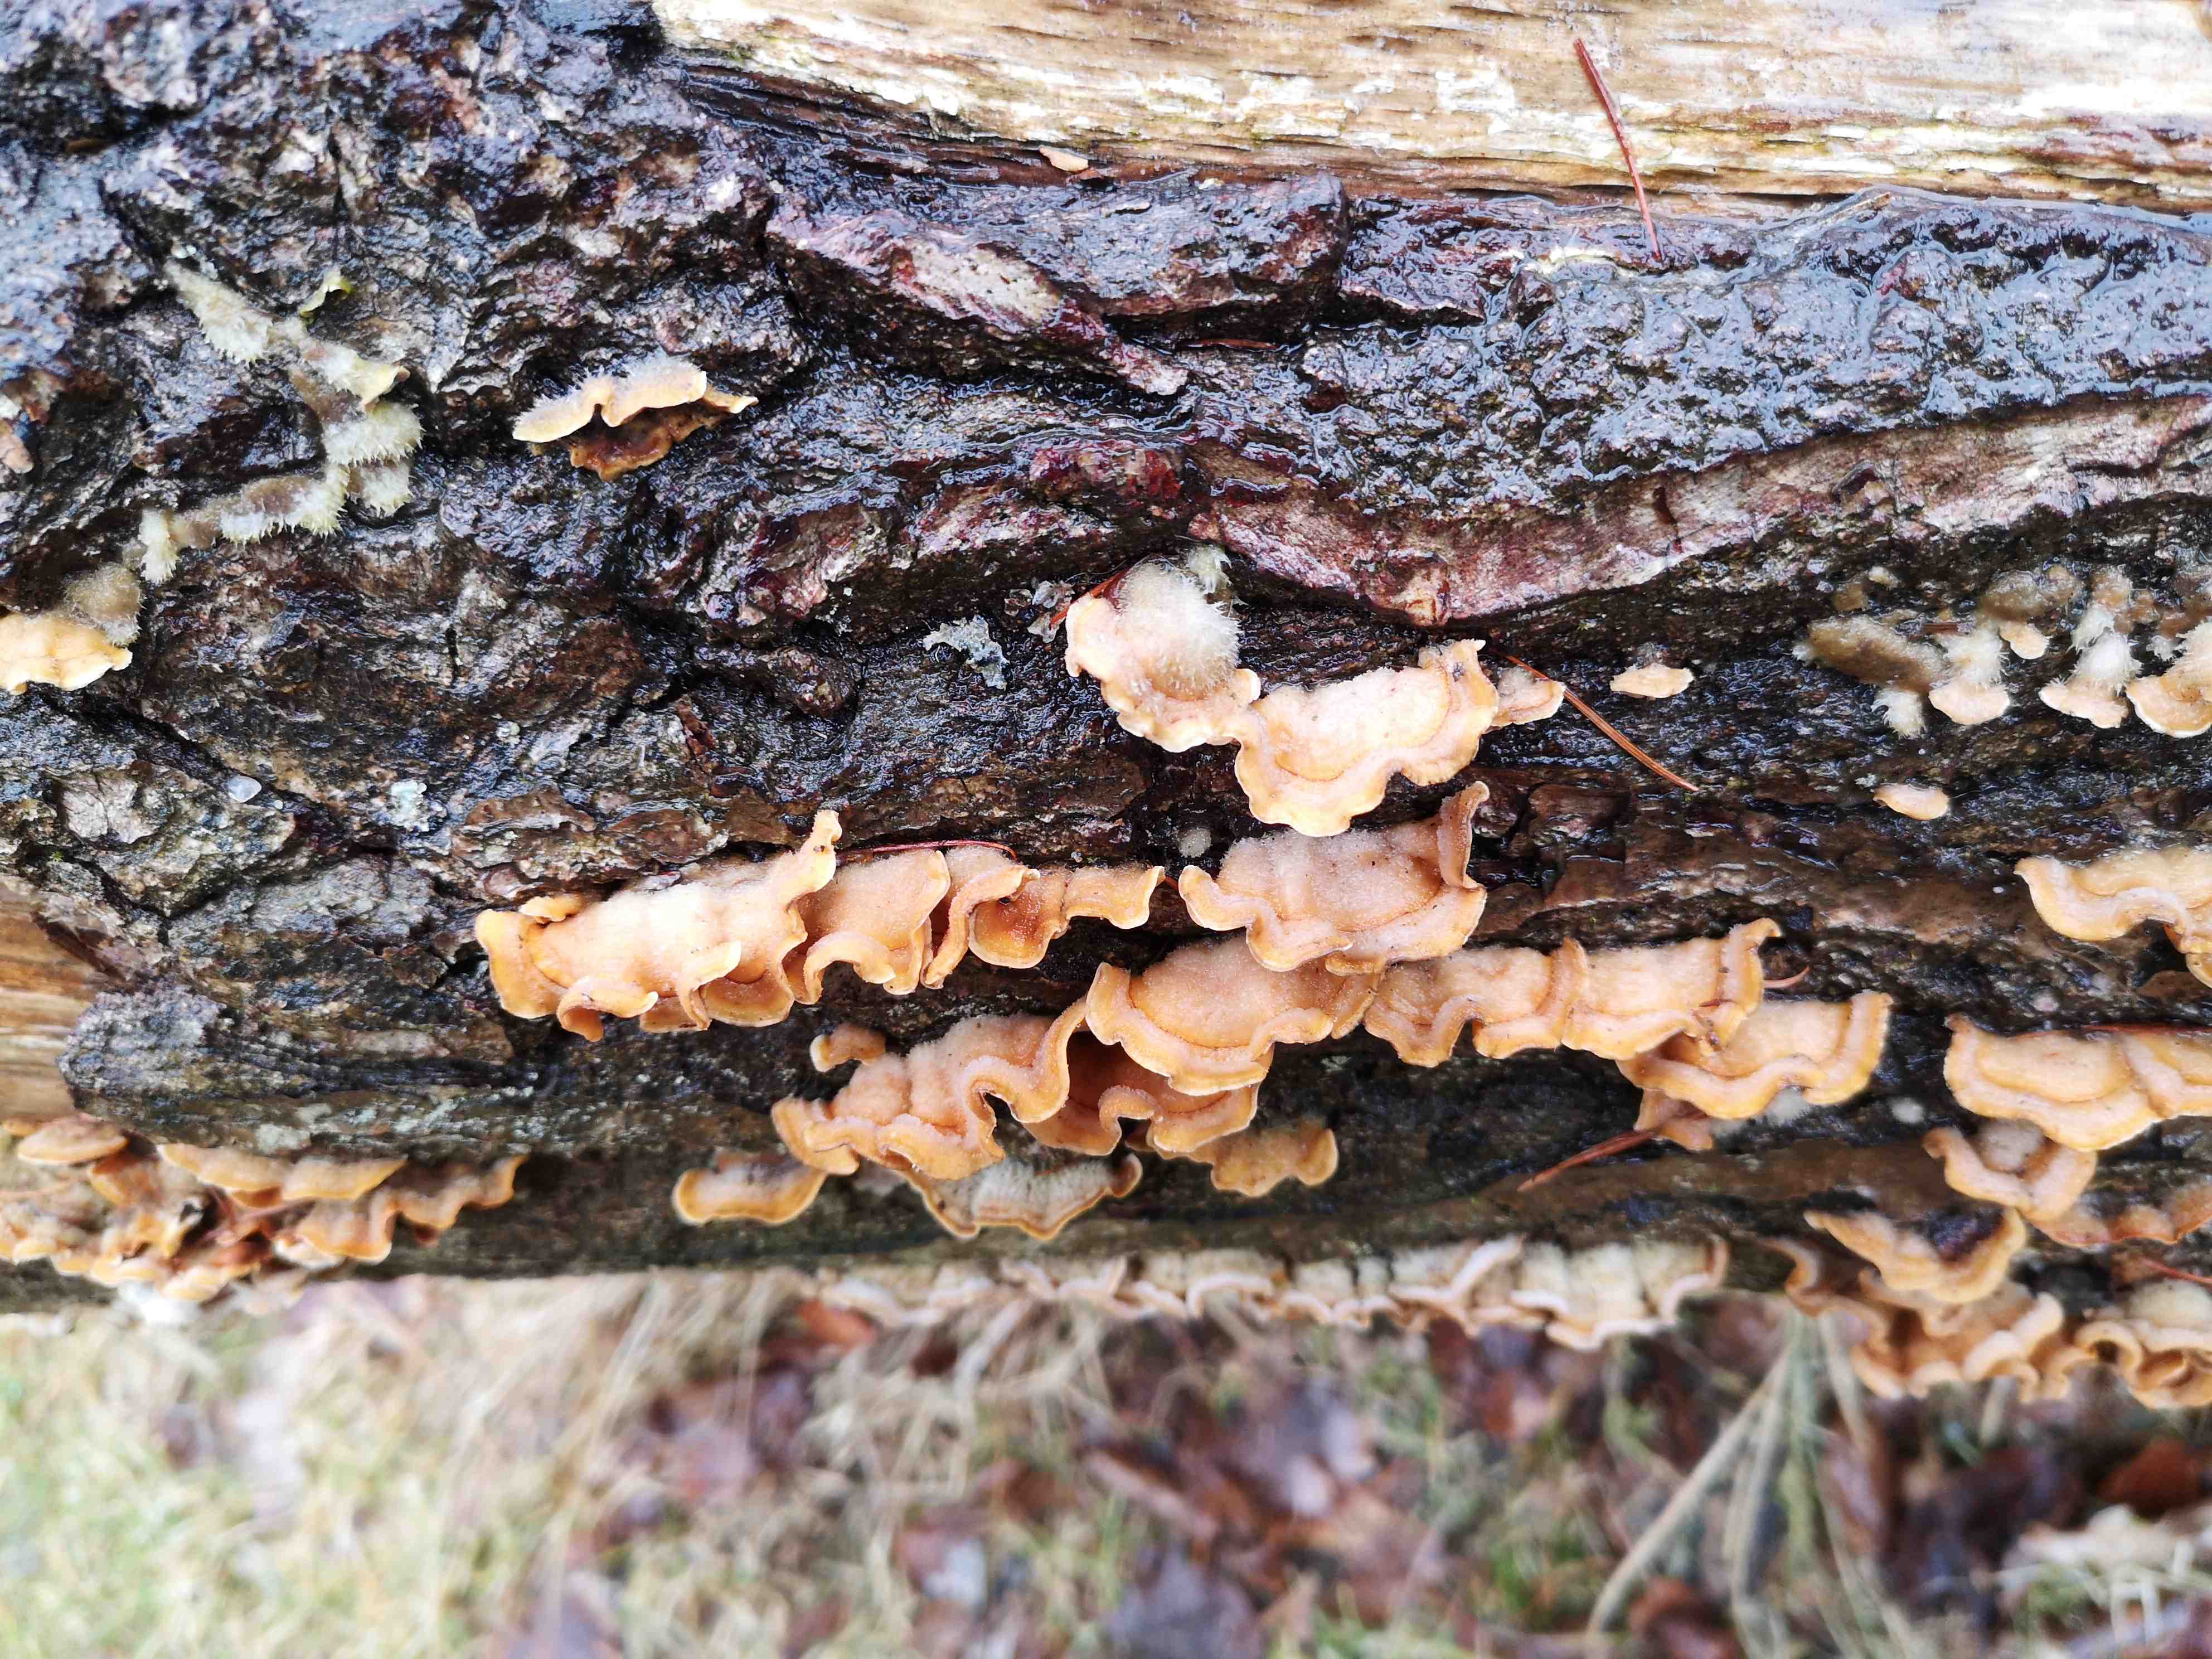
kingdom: Fungi
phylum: Basidiomycota
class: Agaricomycetes
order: Russulales
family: Stereaceae
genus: Stereum
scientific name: Stereum hirsutum
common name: håret lædersvamp
